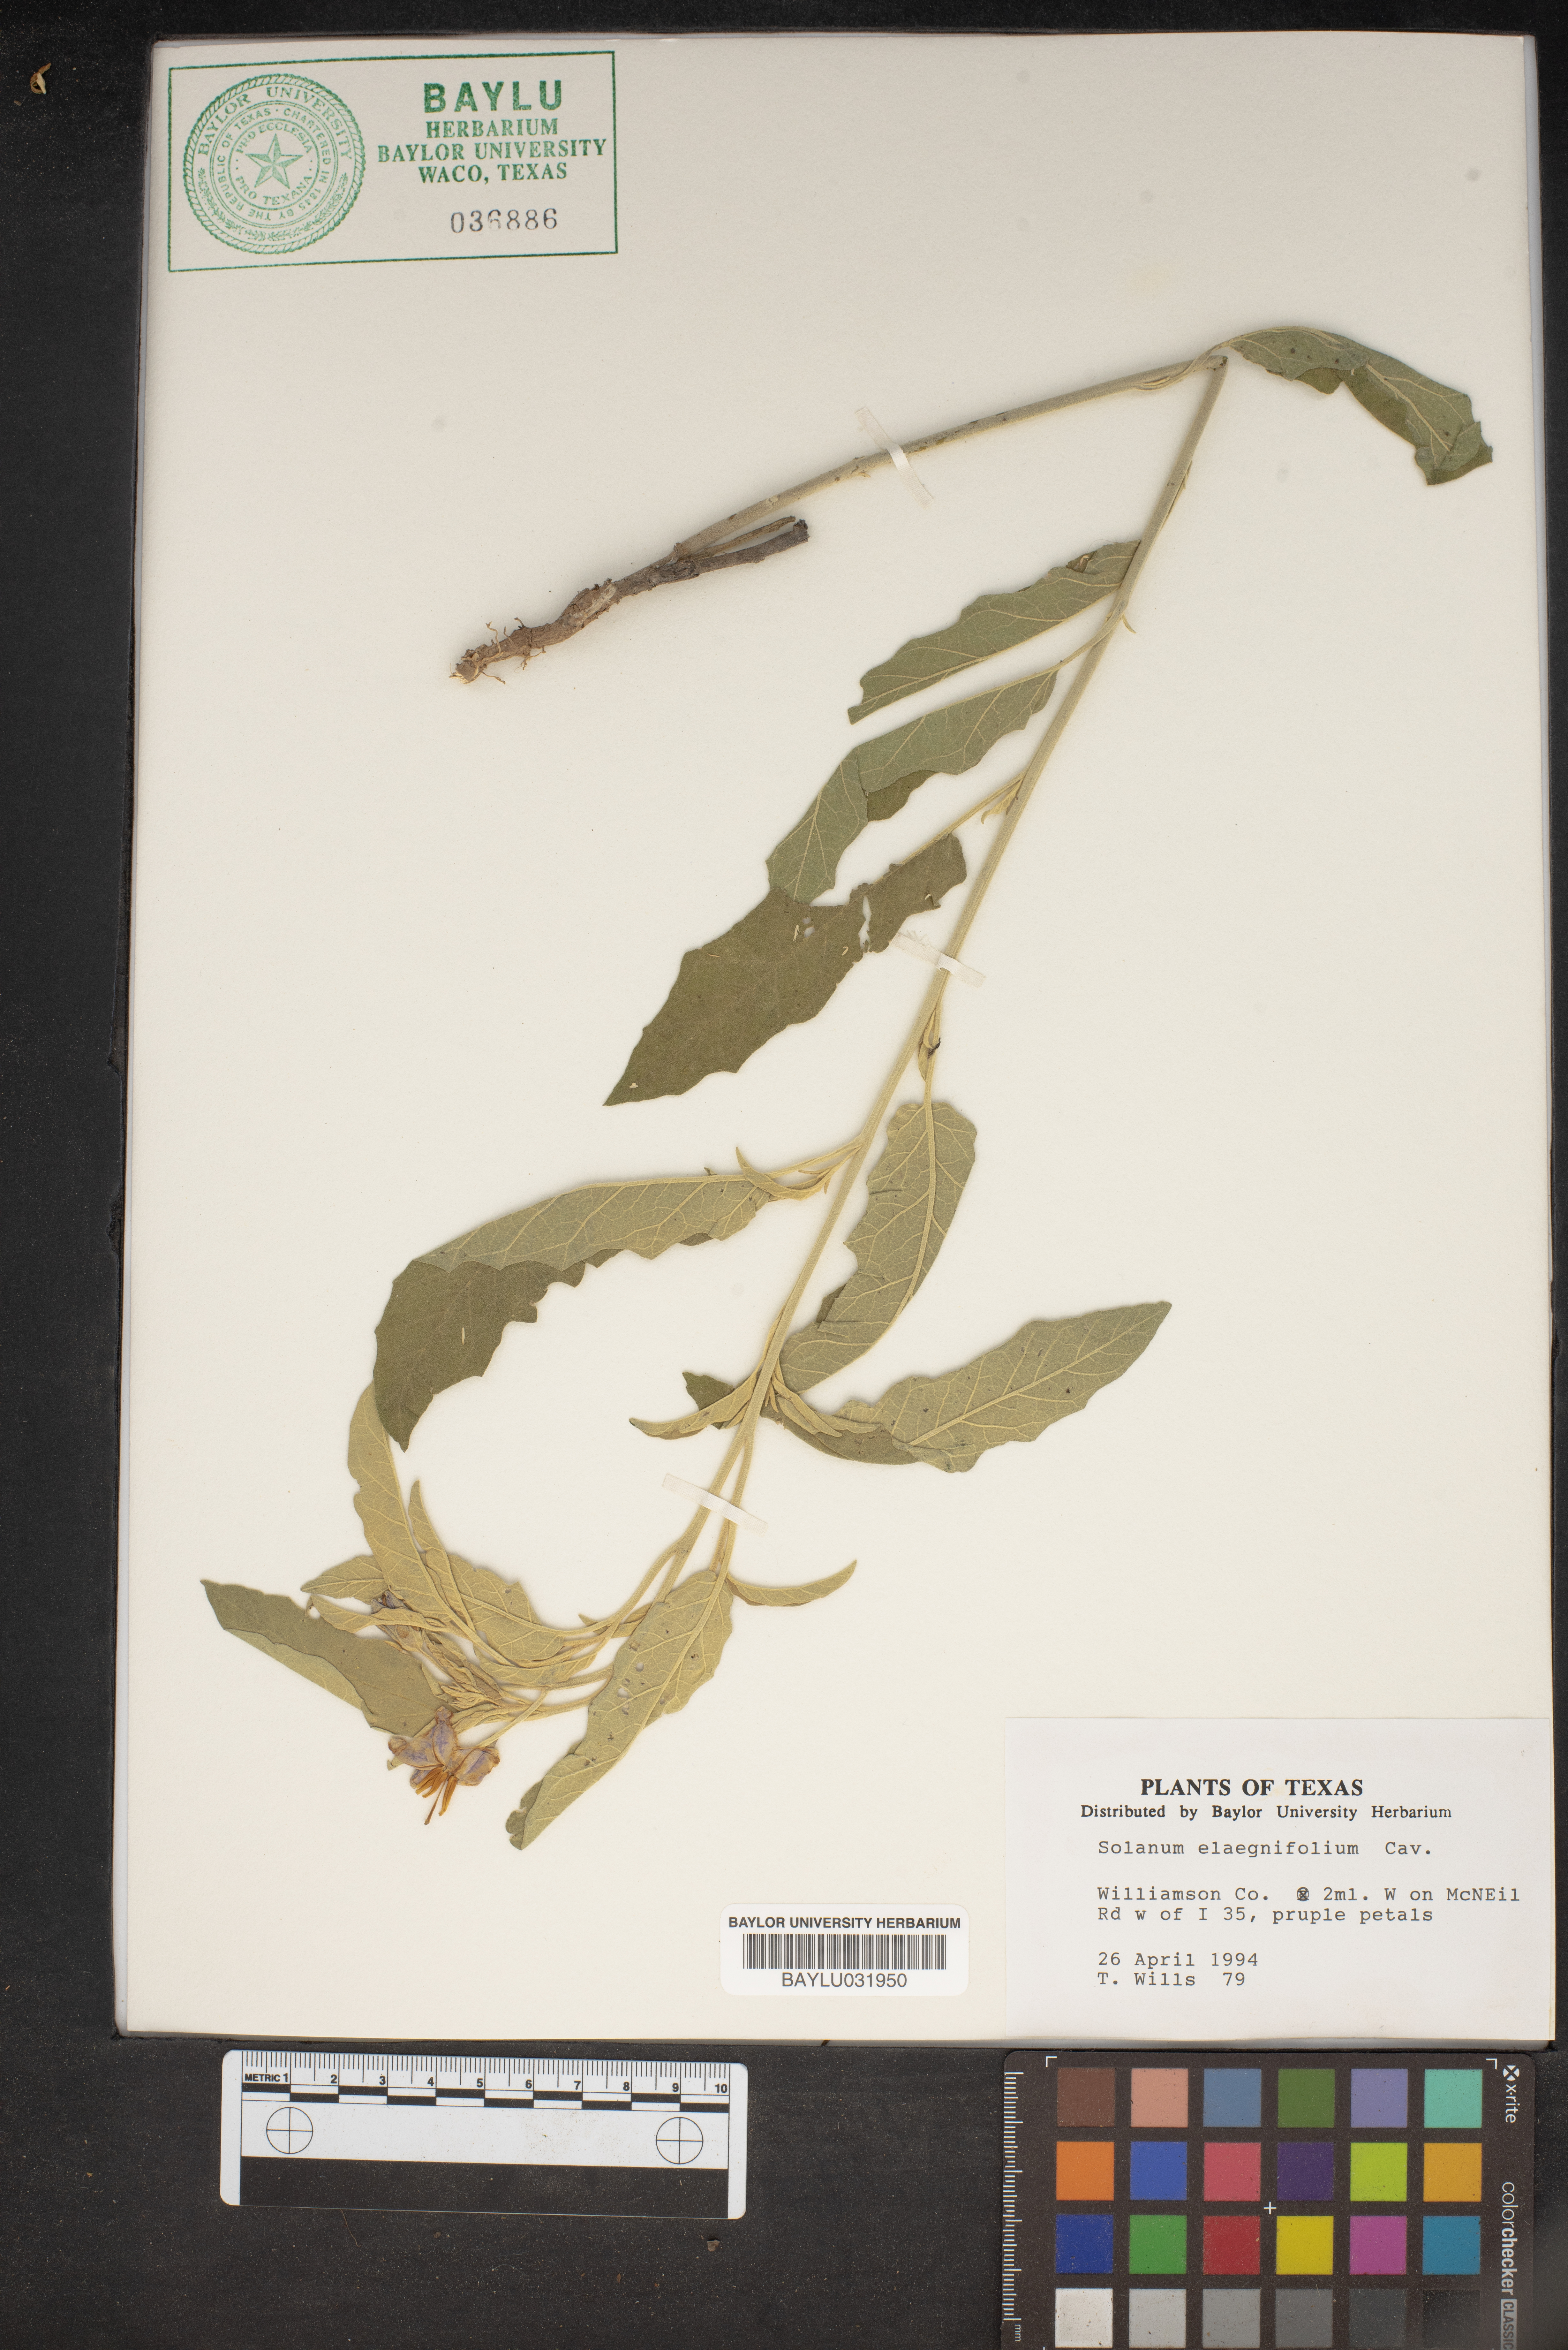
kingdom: Plantae
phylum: Tracheophyta
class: Magnoliopsida
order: Solanales
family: Solanaceae
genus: Solanum
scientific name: Solanum elaeagnifolium
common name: Silverleaf nightshade
